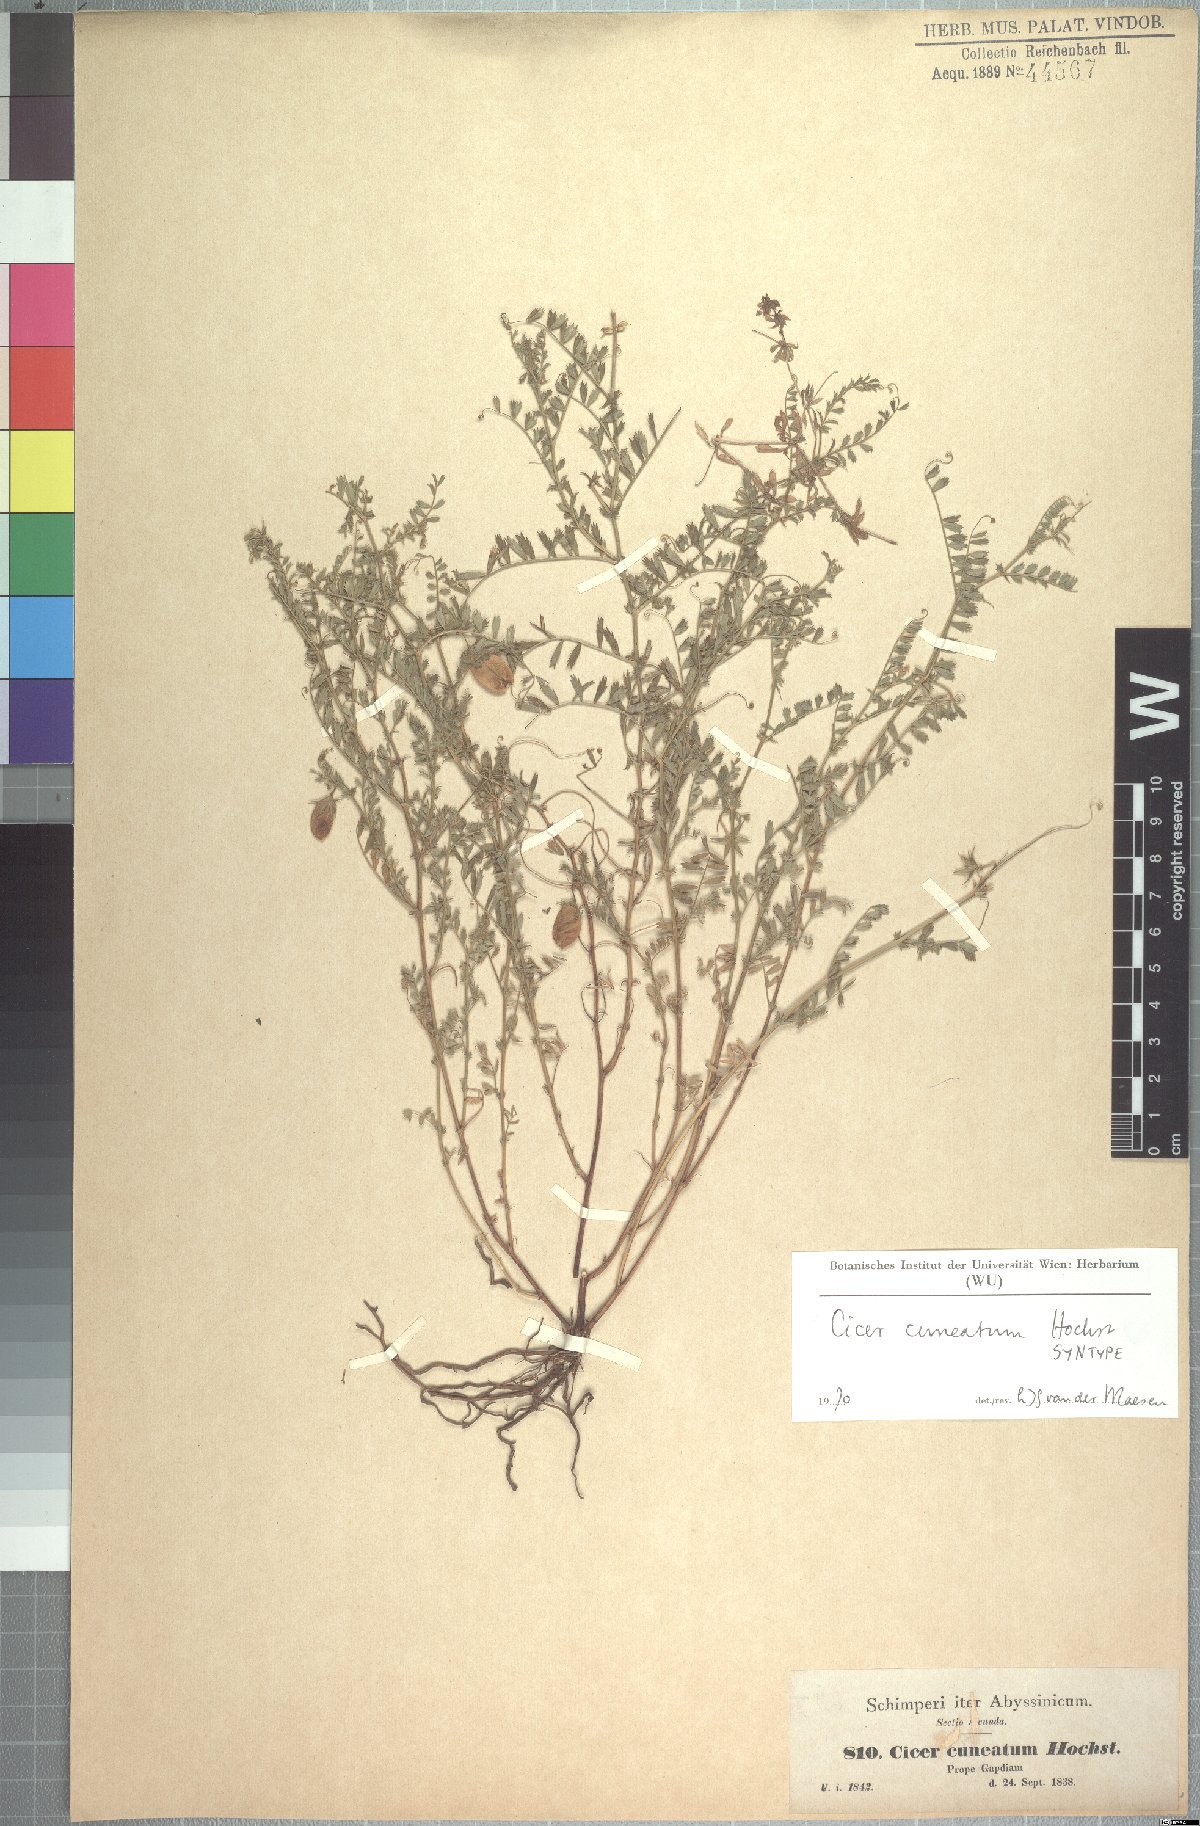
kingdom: Plantae
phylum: Tracheophyta
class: Magnoliopsida
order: Fabales
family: Fabaceae
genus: Cicer
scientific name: Cicer cuneatum
